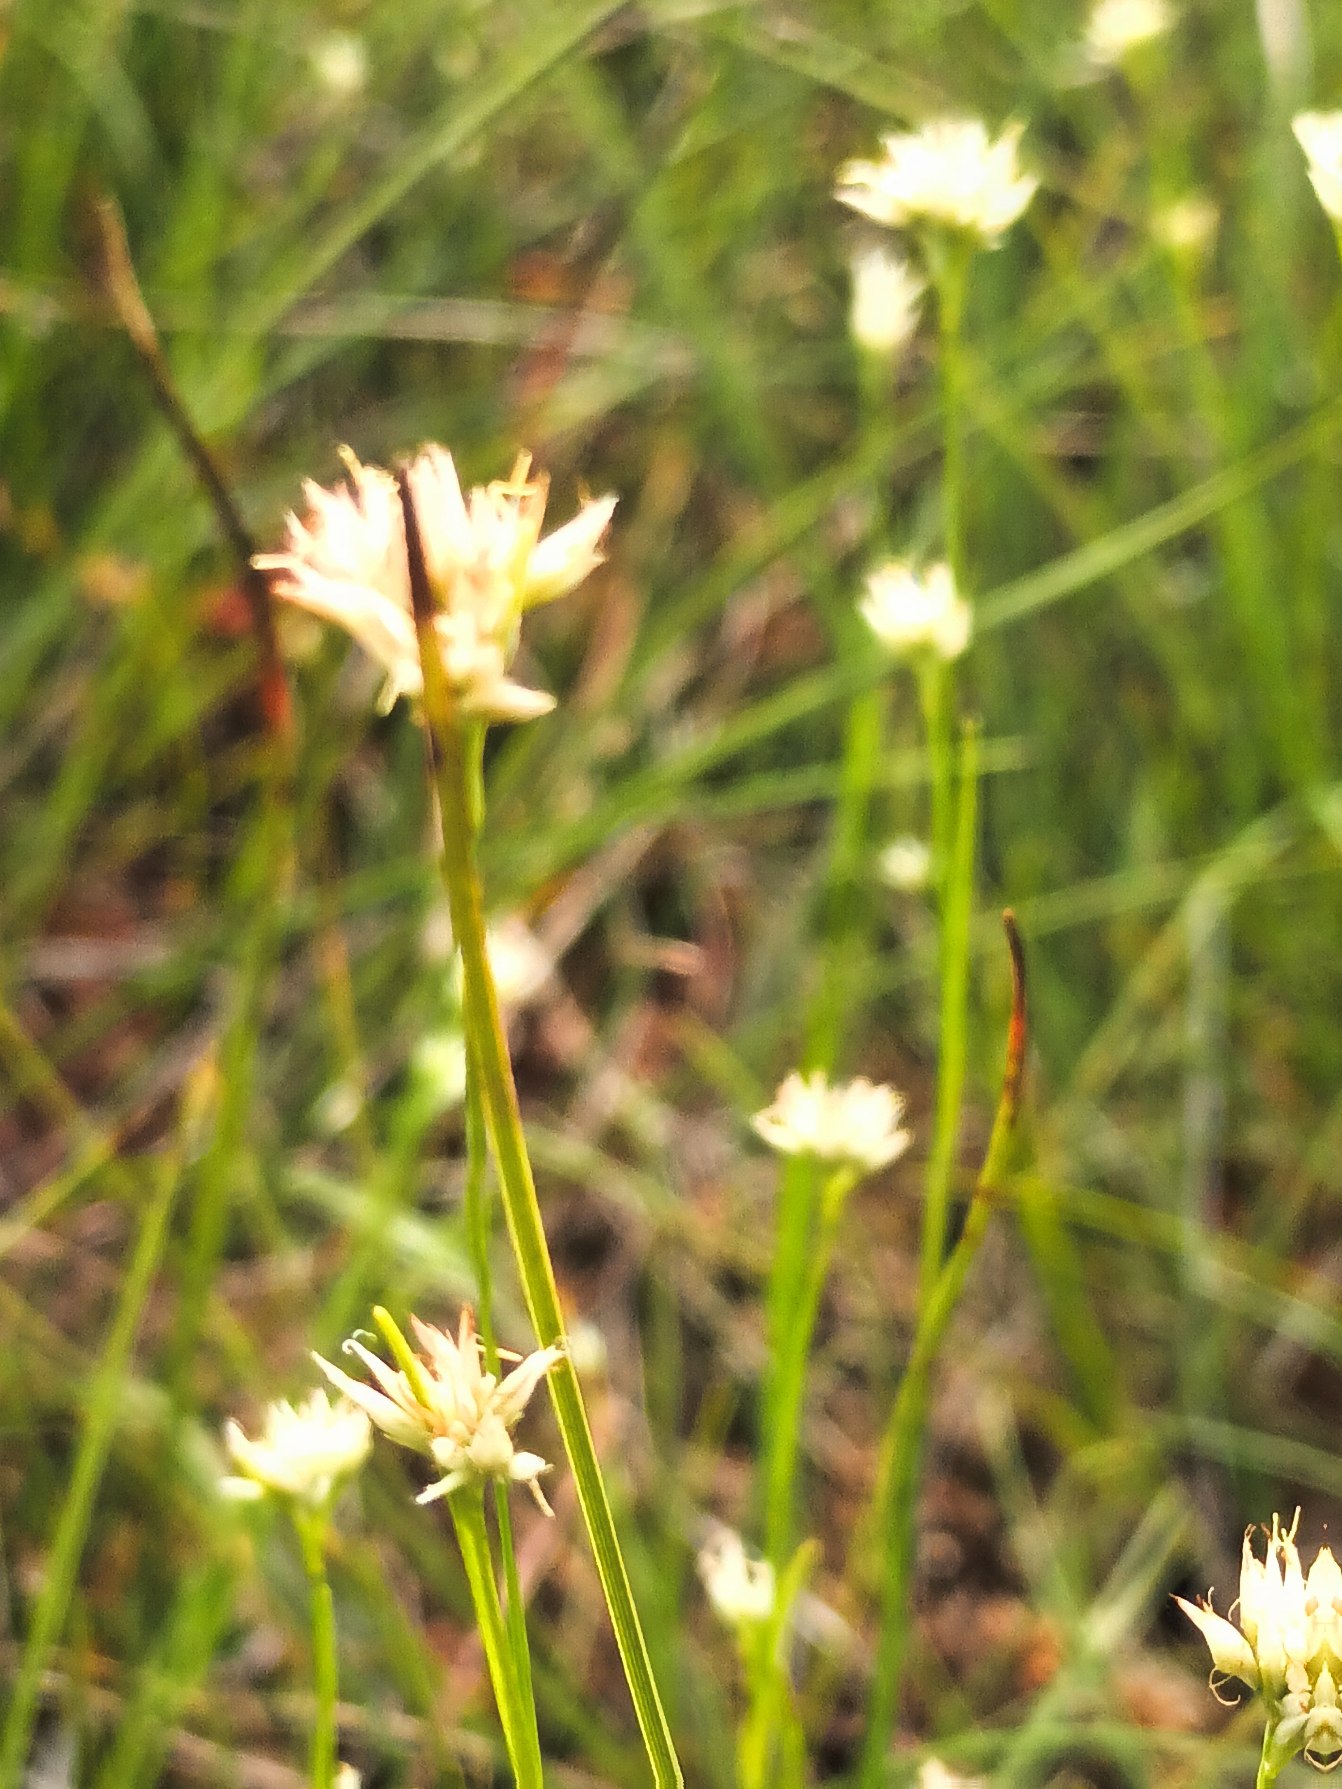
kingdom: Plantae
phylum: Tracheophyta
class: Liliopsida
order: Poales
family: Cyperaceae
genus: Rhynchospora
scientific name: Rhynchospora alba
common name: Hvid næbfrø
